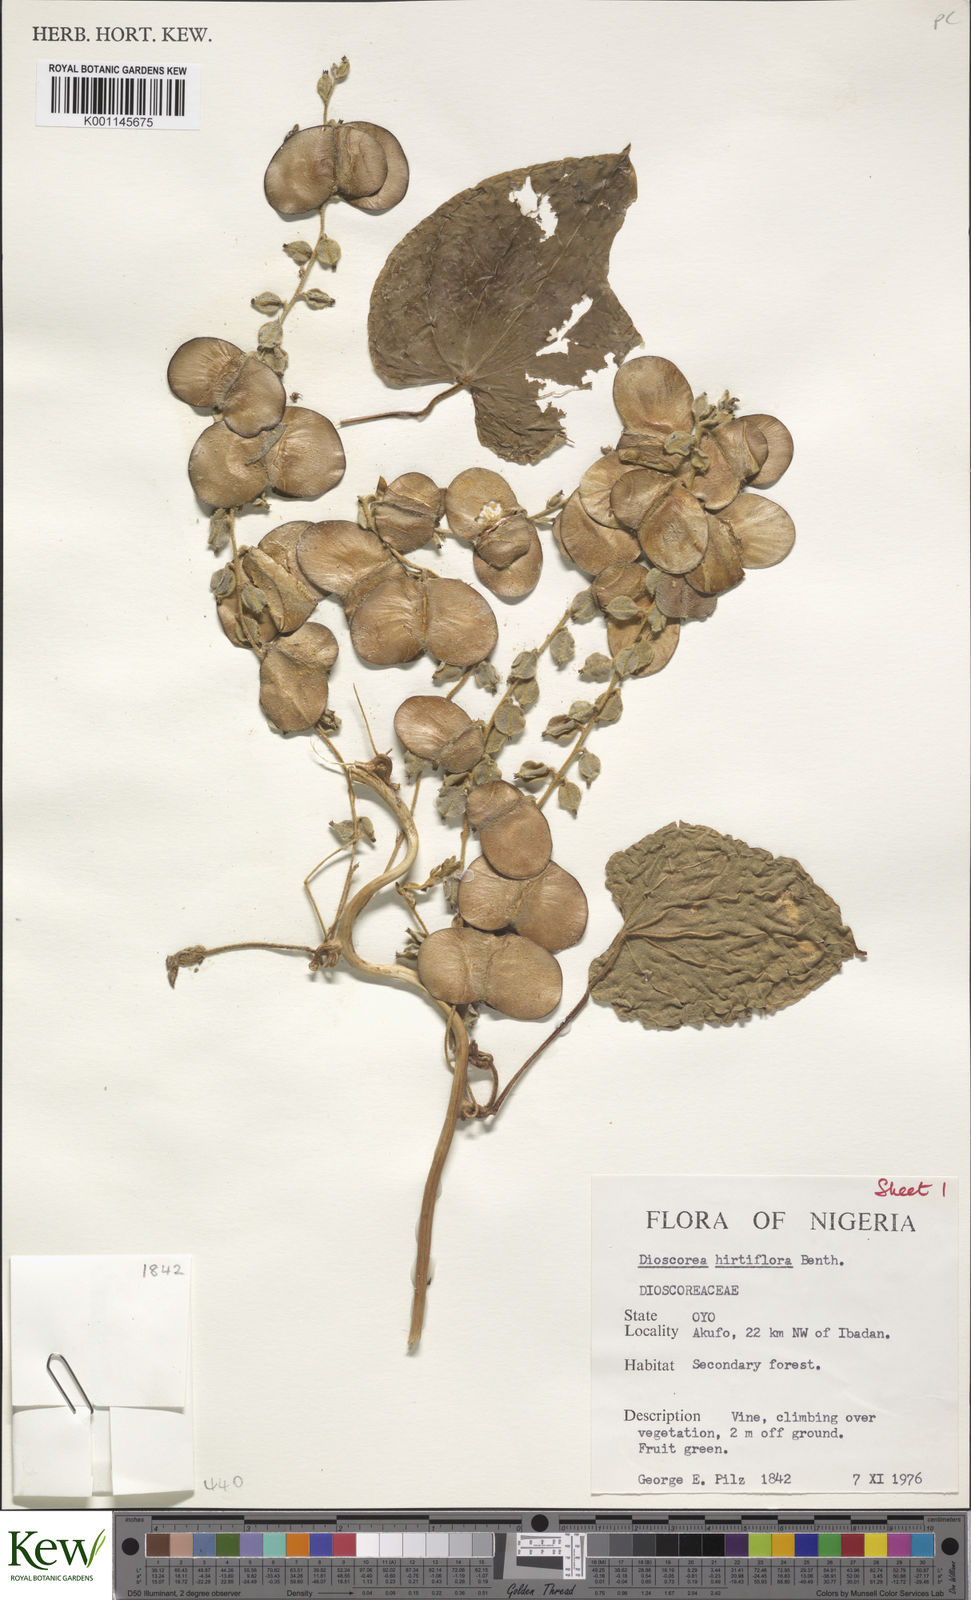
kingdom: Plantae
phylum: Tracheophyta
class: Liliopsida
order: Dioscoreales
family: Dioscoreaceae
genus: Dioscorea
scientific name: Dioscorea hirtiflora
